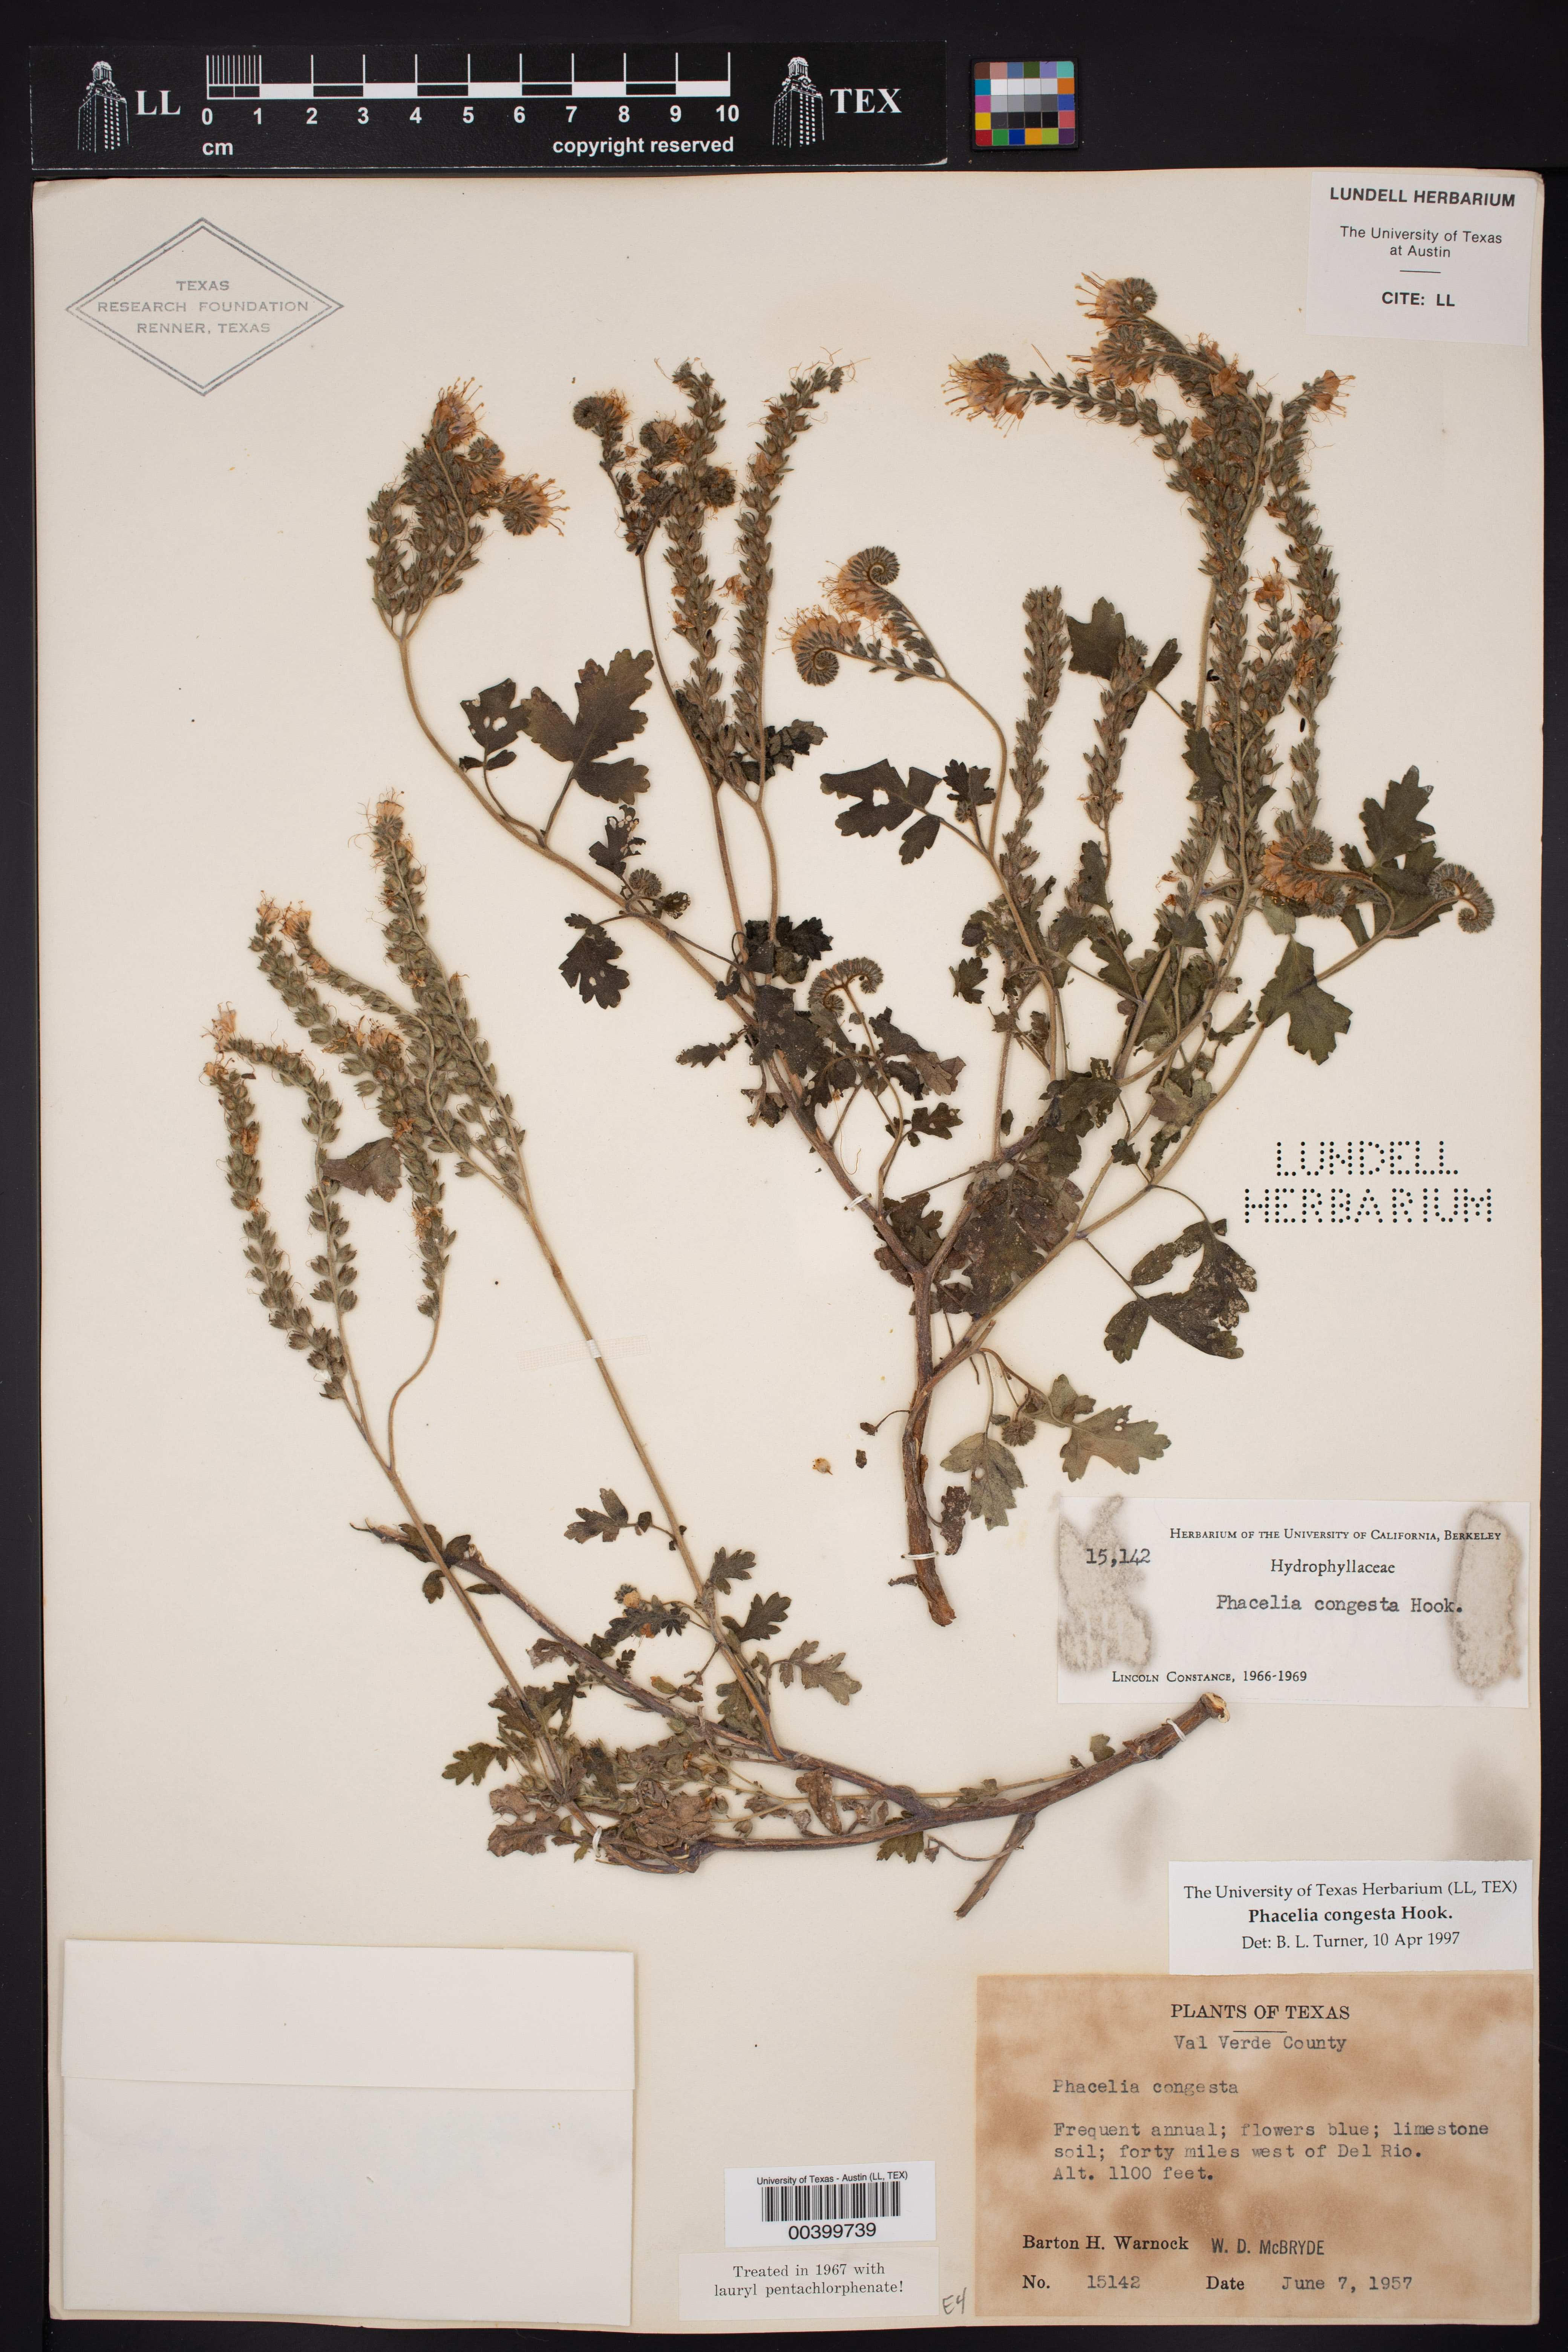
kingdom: Plantae
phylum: Tracheophyta
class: Magnoliopsida
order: Boraginales
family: Hydrophyllaceae
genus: Phacelia
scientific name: Phacelia congesta
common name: Blue curls
